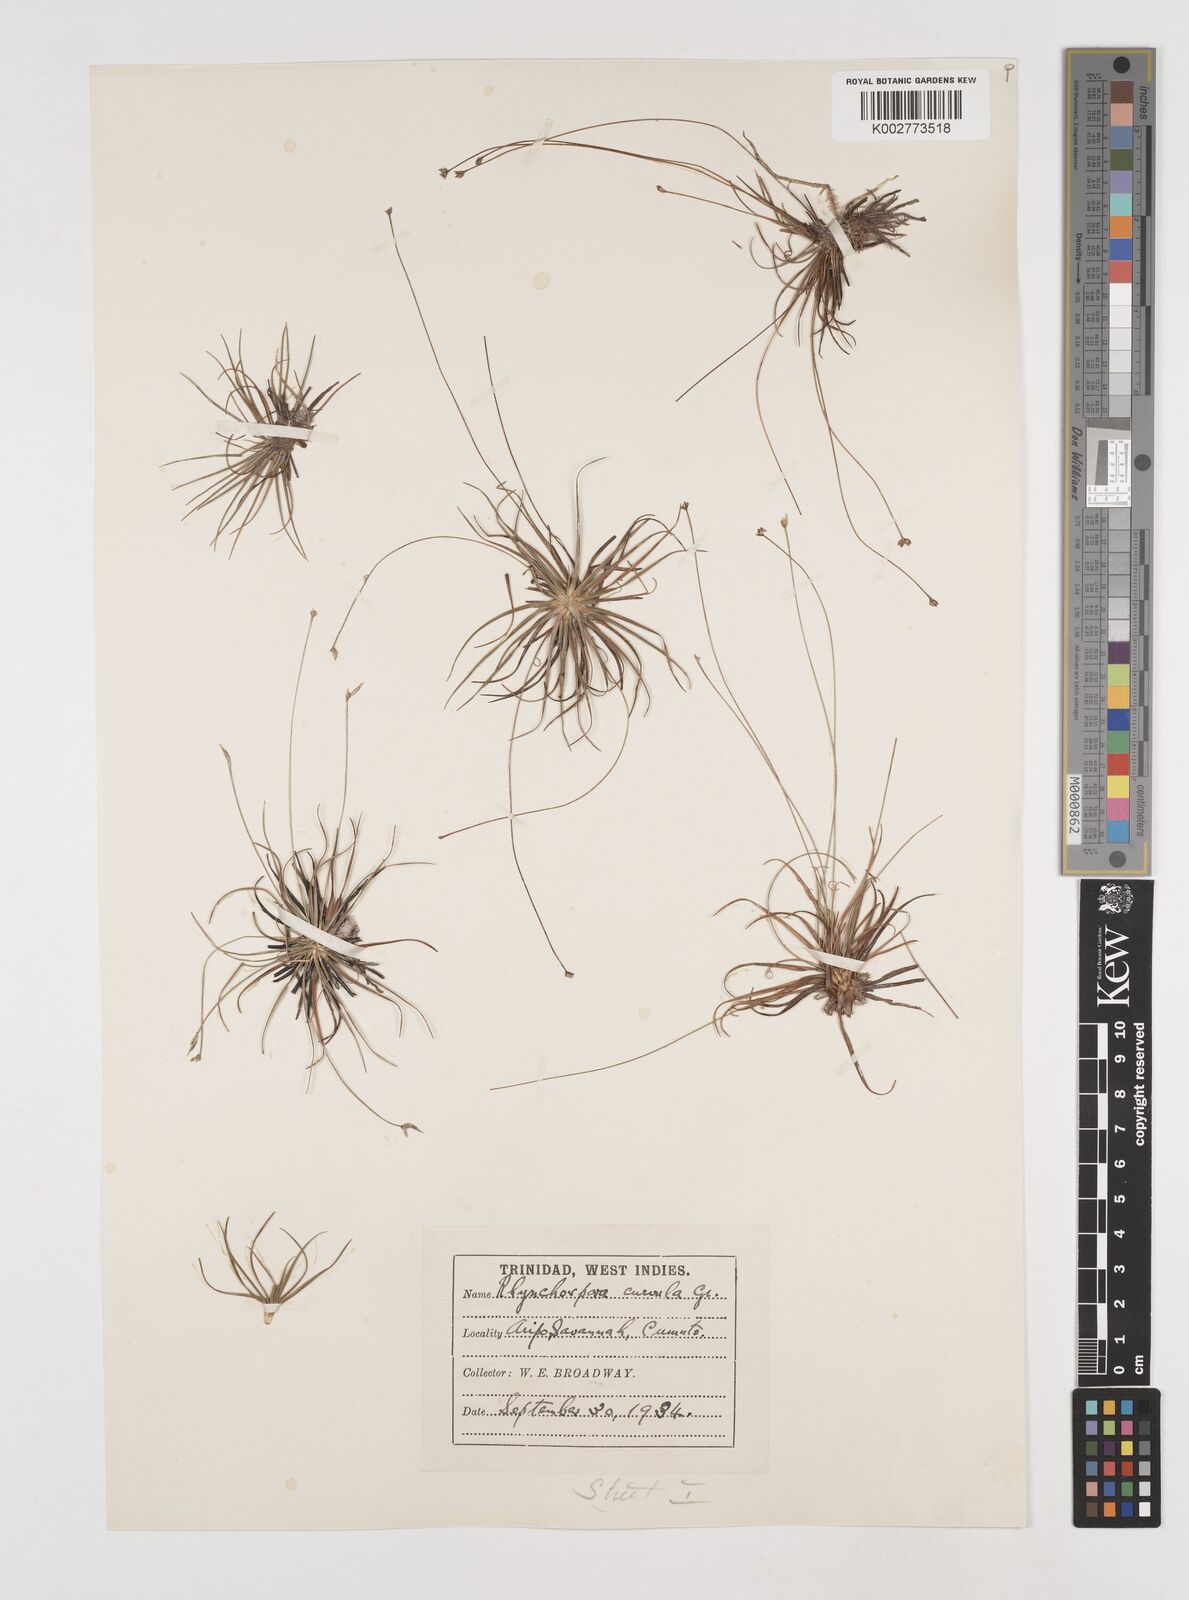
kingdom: Plantae
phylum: Tracheophyta
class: Liliopsida
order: Poales
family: Cyperaceae
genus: Rhynchospora
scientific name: Rhynchospora tenuis
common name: Quill beaksedge
